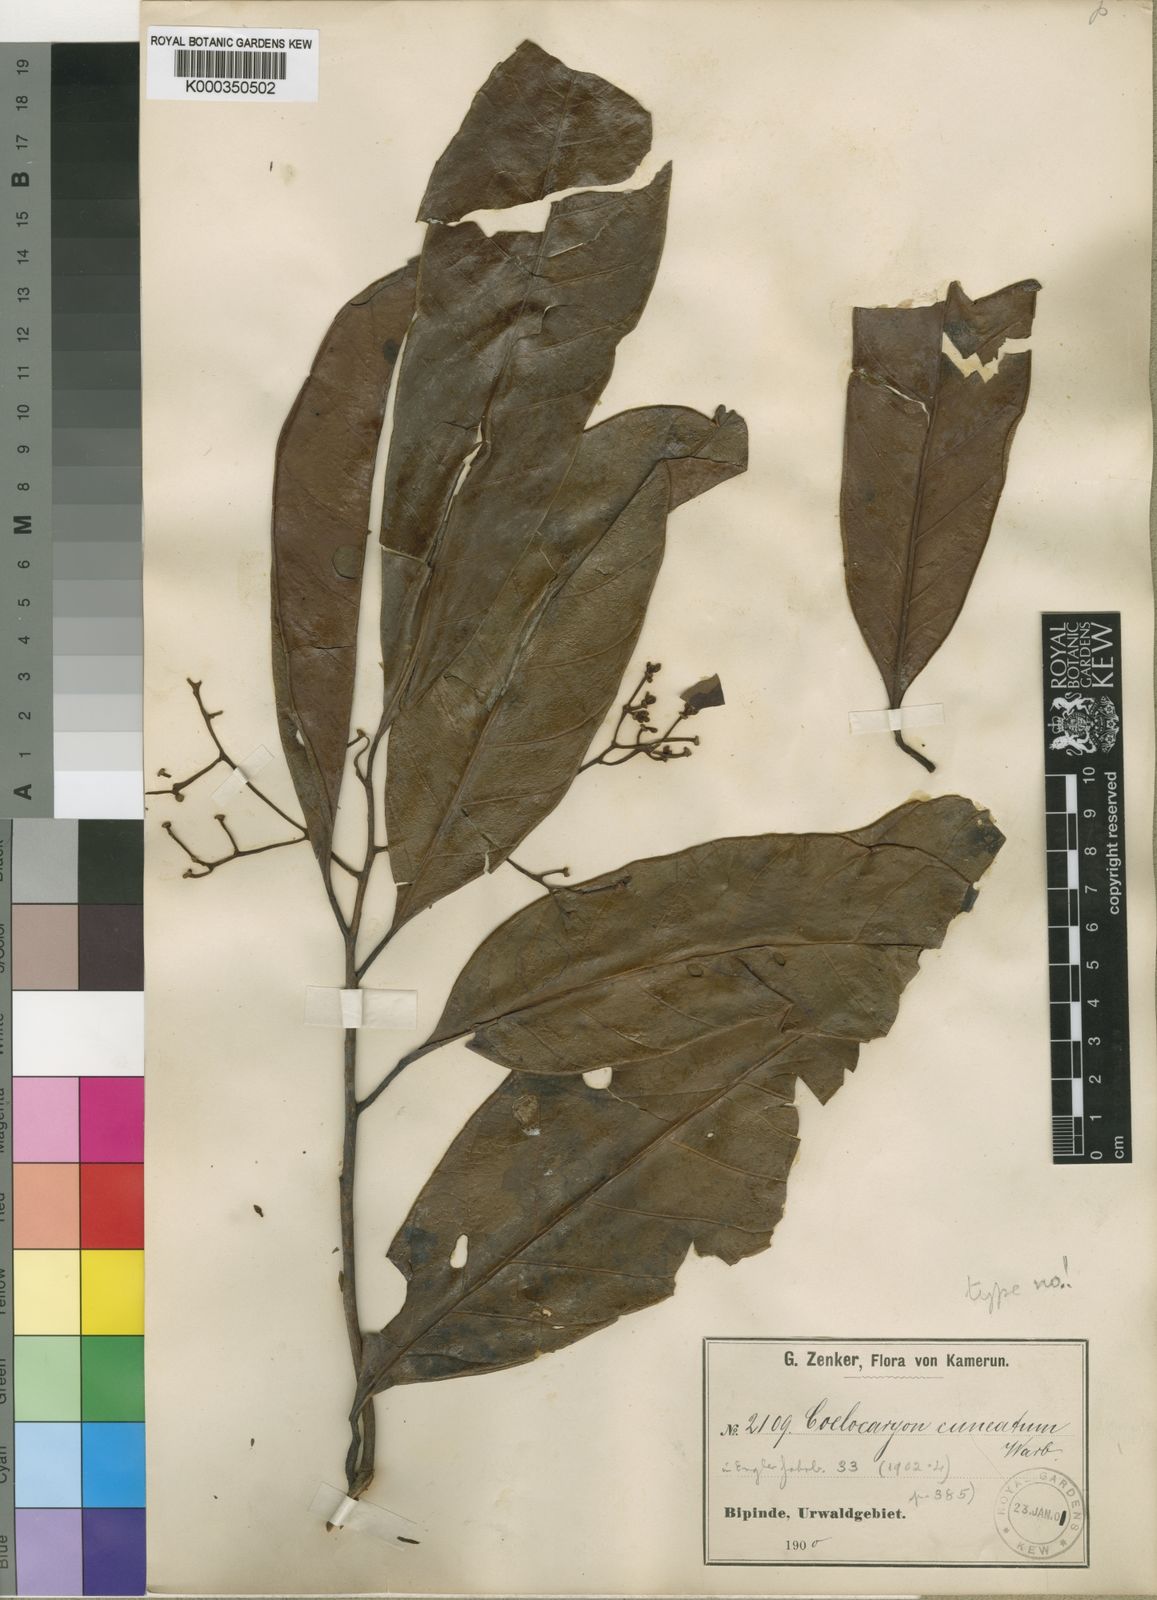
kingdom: Plantae
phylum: Tracheophyta
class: Magnoliopsida
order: Magnoliales
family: Myristicaceae
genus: Coelocaryon
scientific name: Coelocaryon preussii
